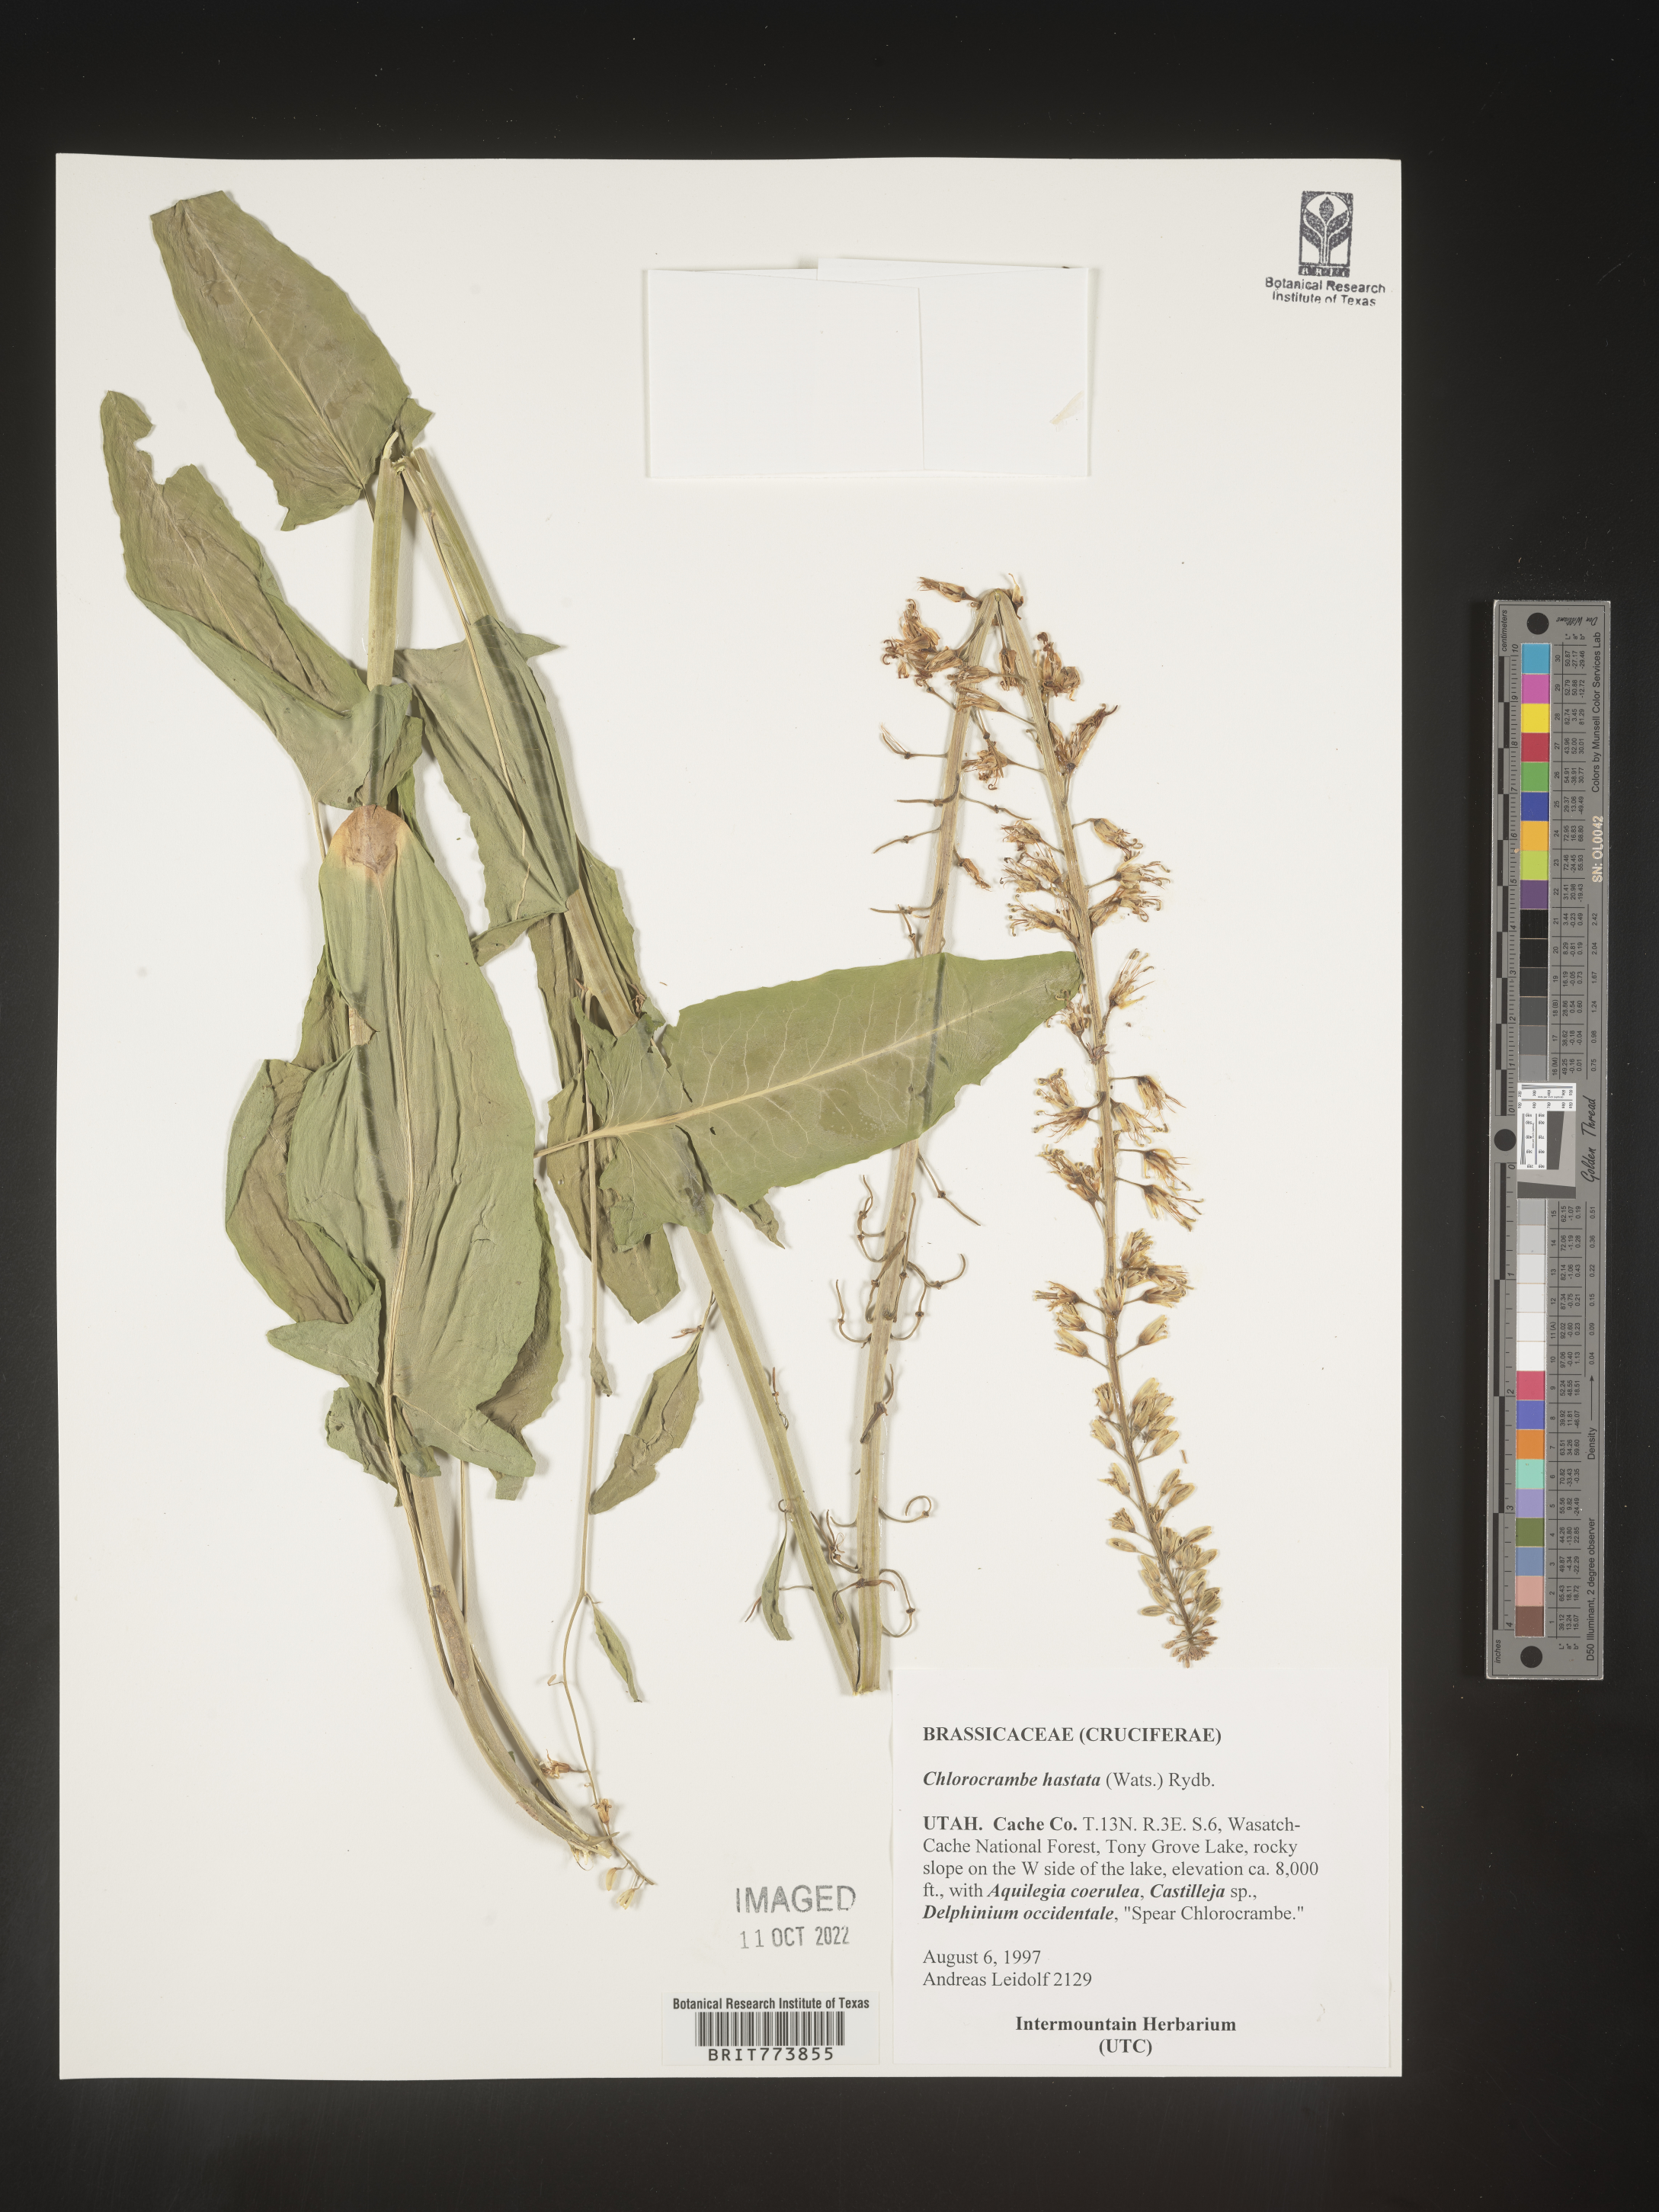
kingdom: Plantae
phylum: Tracheophyta
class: Magnoliopsida
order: Brassicales
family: Brassicaceae
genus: Chlorocrambe
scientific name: Chlorocrambe
